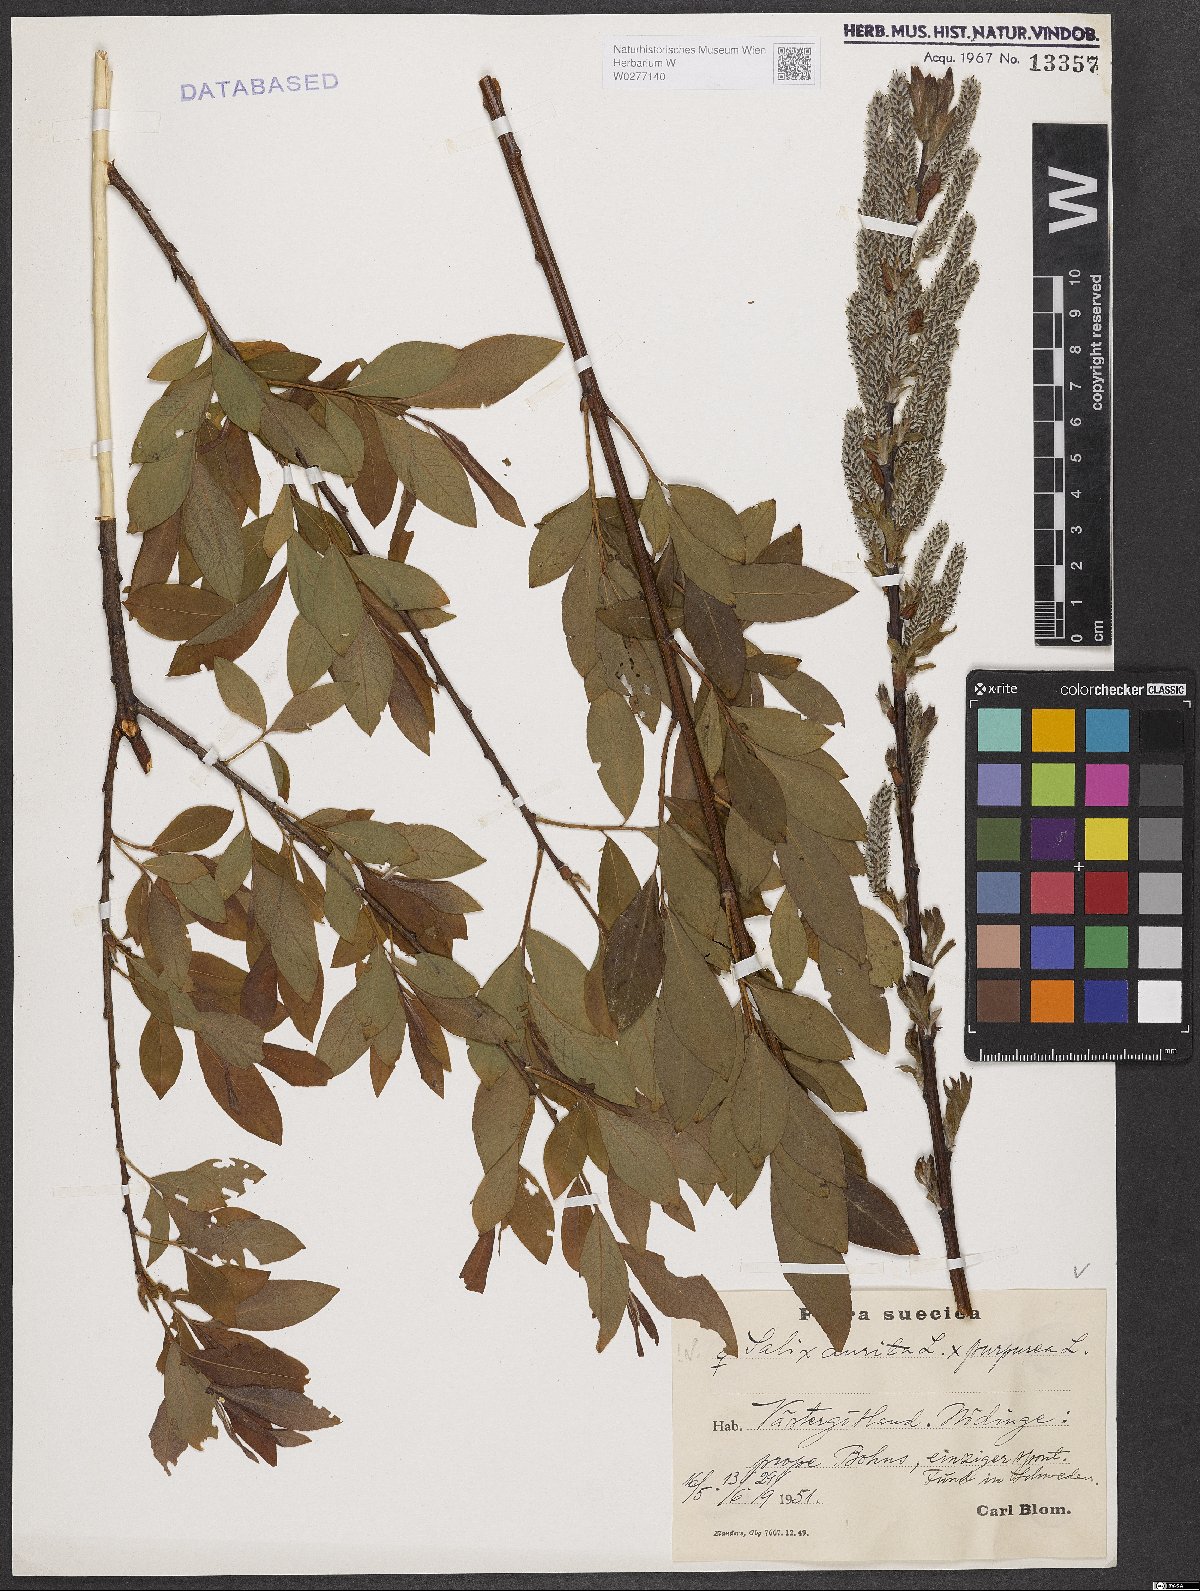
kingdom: Plantae
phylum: Tracheophyta
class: Magnoliopsida
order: Malpighiales
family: Salicaceae
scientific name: Salicaceae
